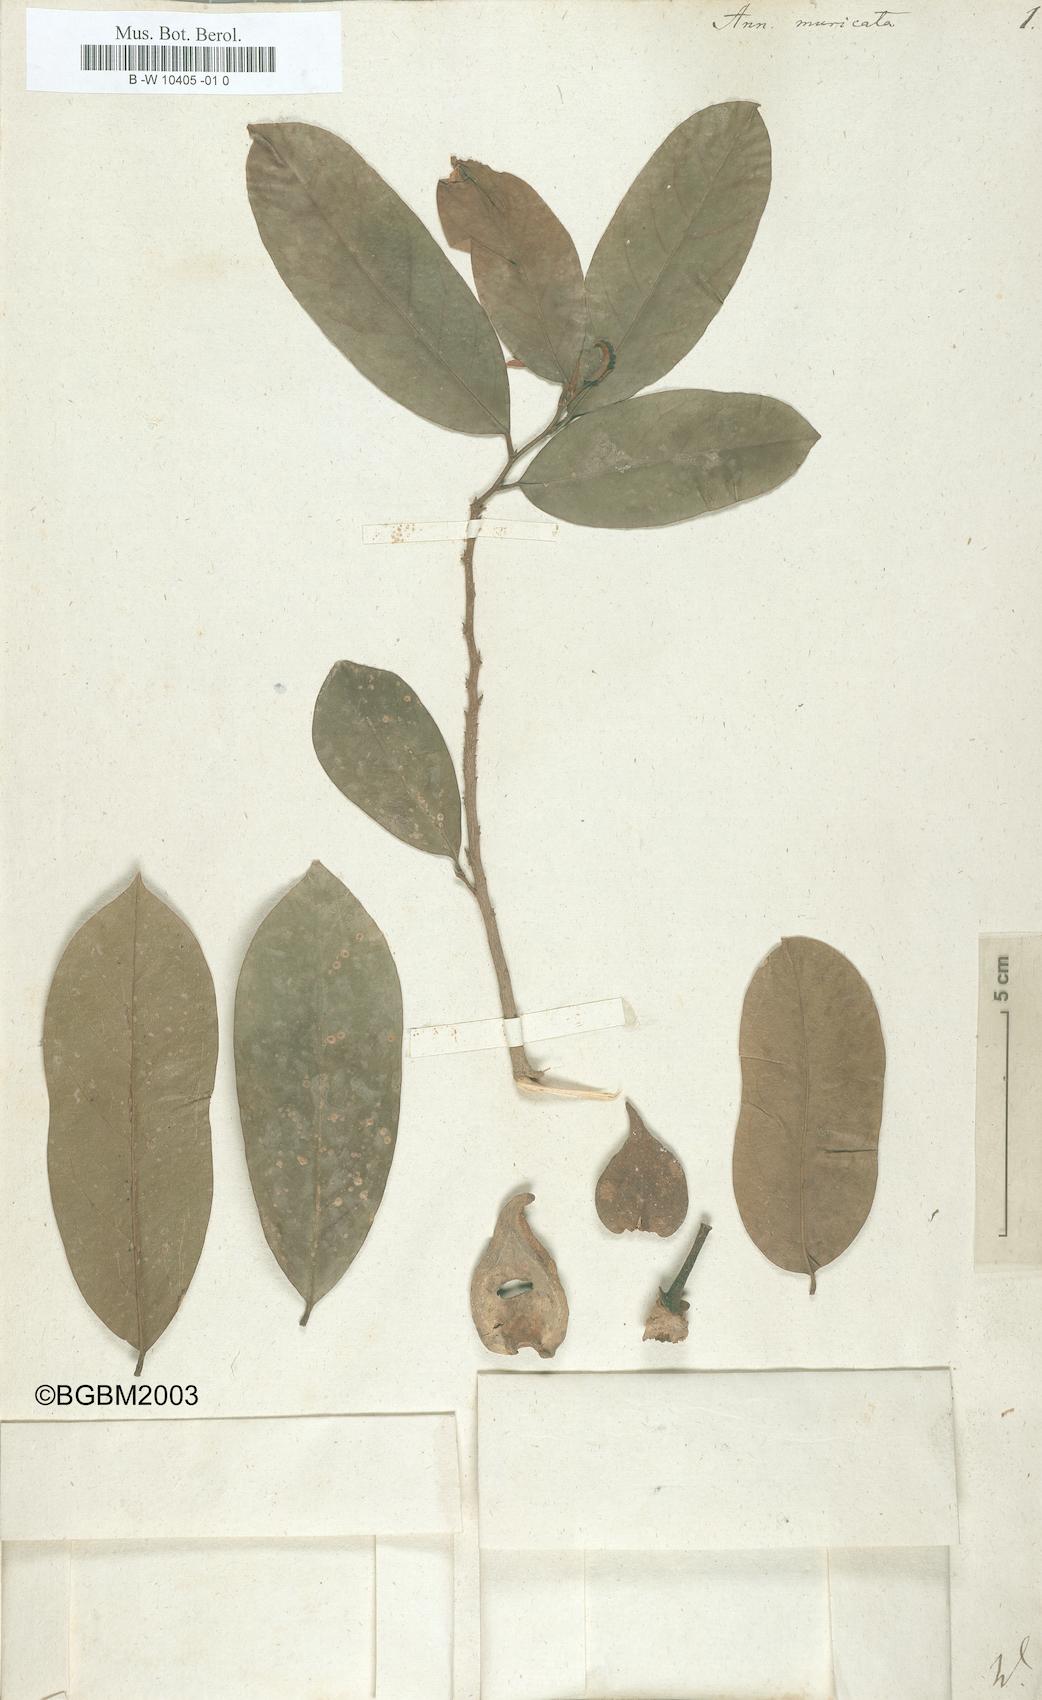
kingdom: Plantae
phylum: Tracheophyta
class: Magnoliopsida
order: Magnoliales
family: Annonaceae
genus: Annona
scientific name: Annona muricata
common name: Soursop
